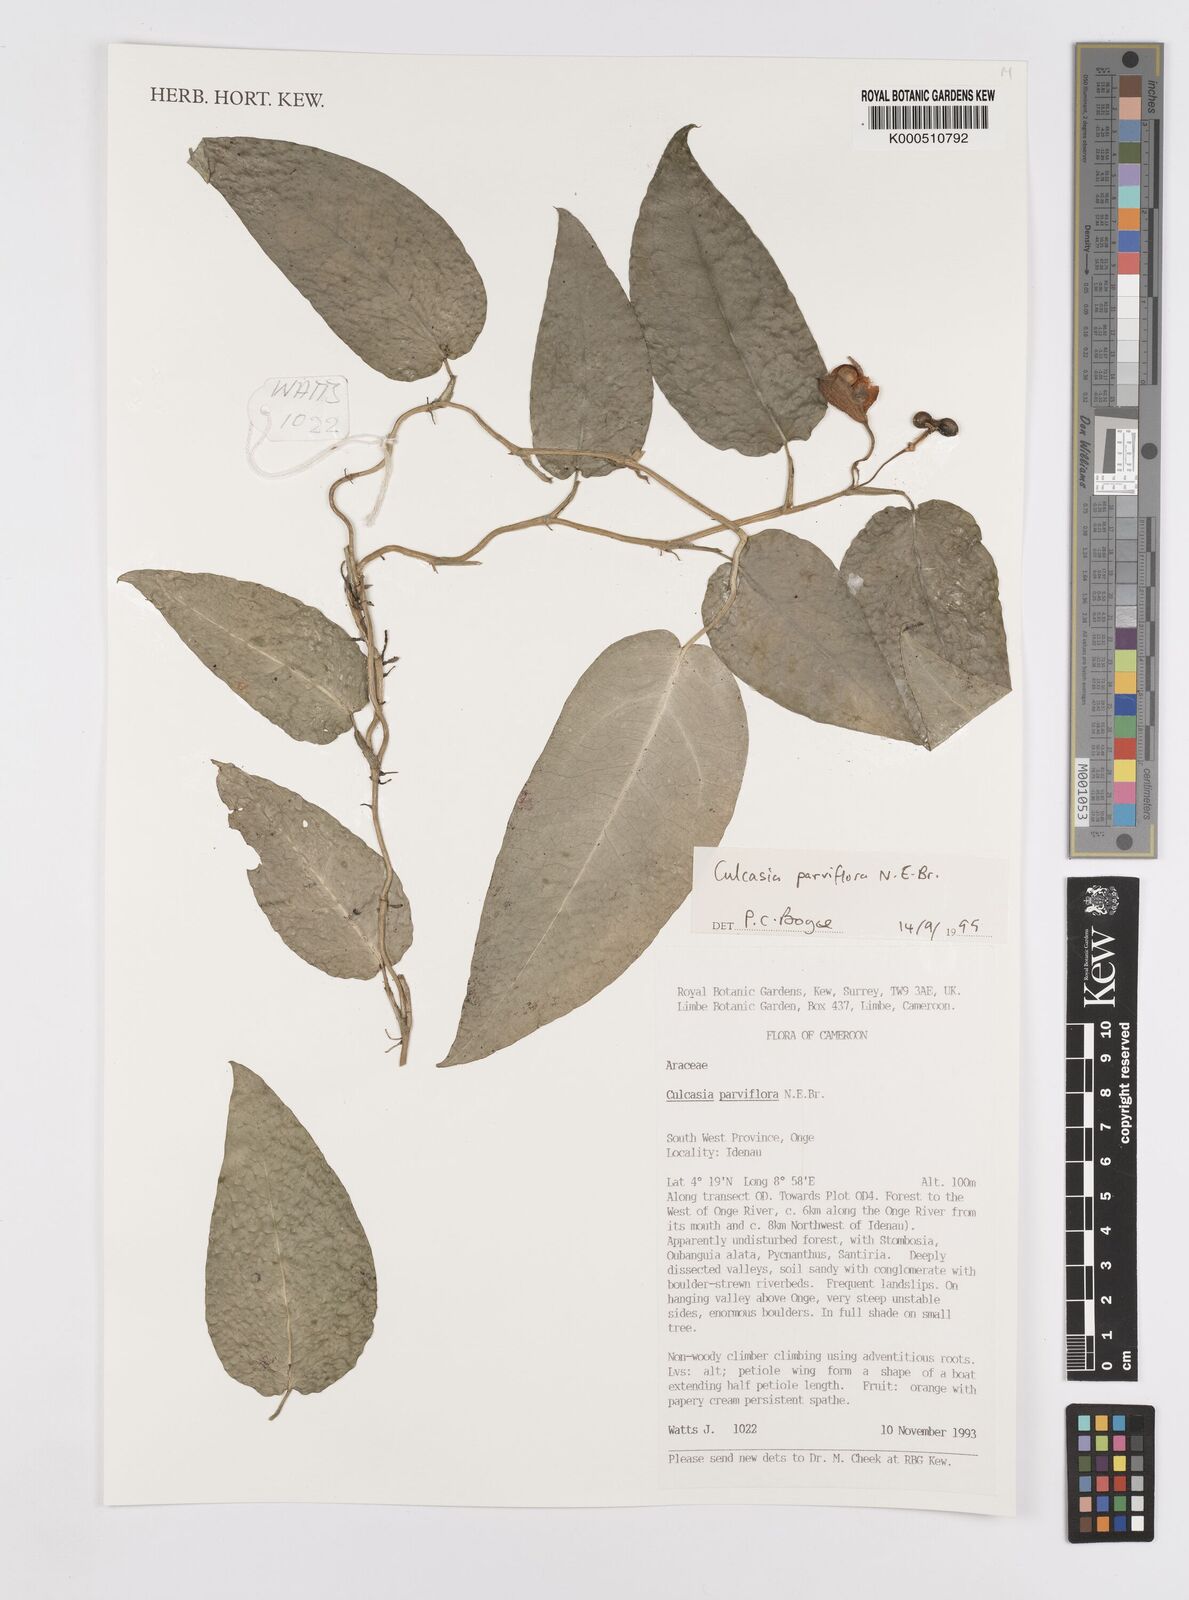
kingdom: Plantae
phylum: Tracheophyta
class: Liliopsida
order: Alismatales
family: Araceae
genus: Culcasia
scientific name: Culcasia parviflora
